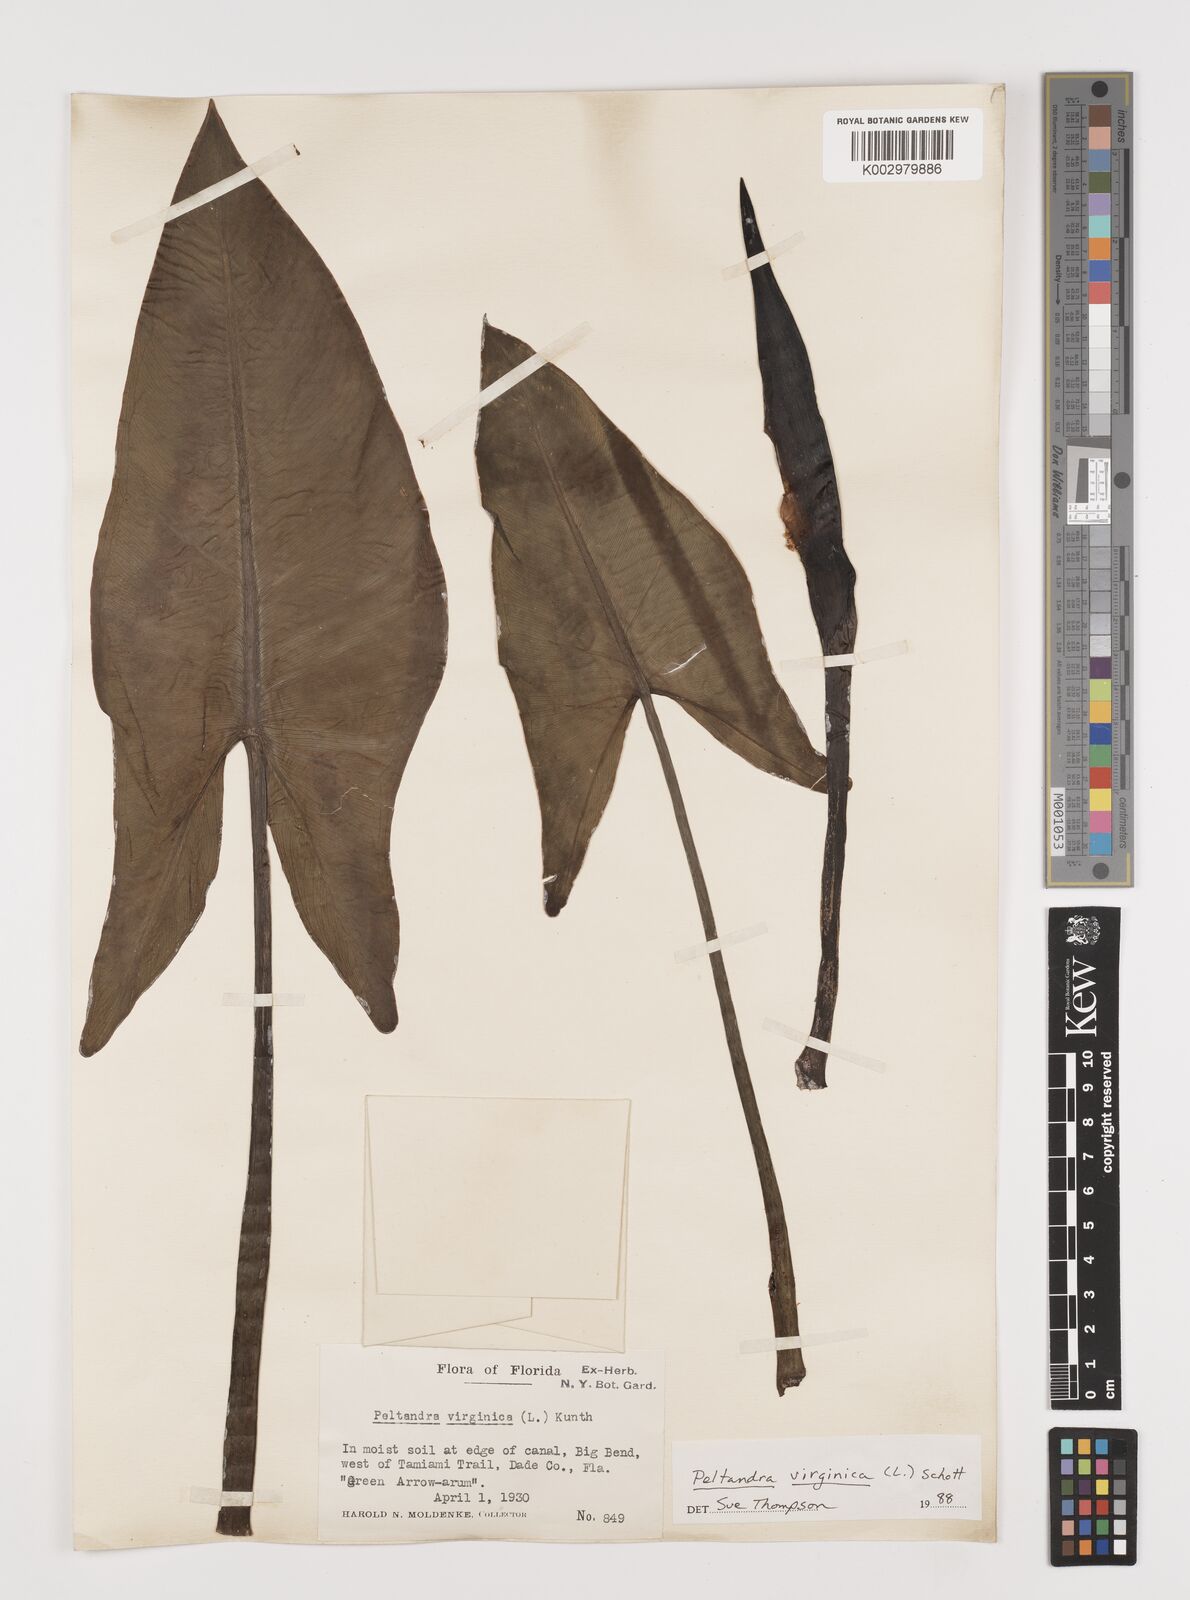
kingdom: Plantae
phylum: Tracheophyta
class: Liliopsida
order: Alismatales
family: Araceae
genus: Peltandra
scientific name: Peltandra virginica
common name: Arrow arum
